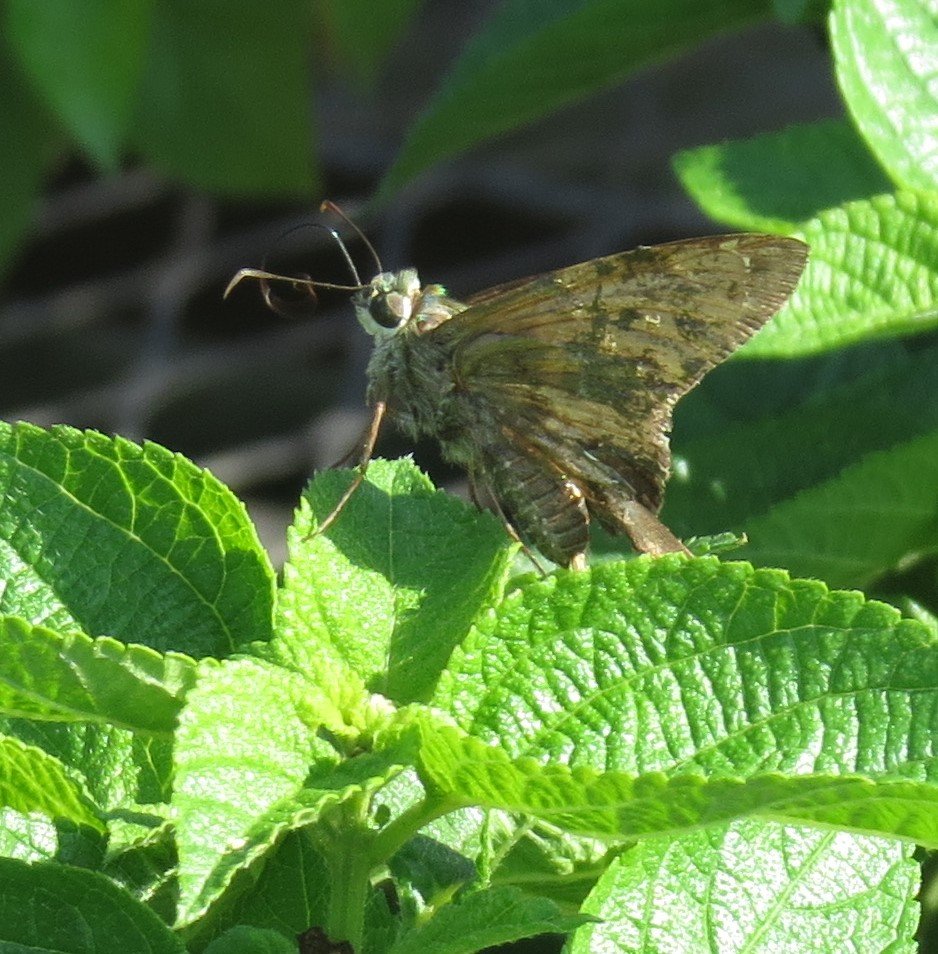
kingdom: Animalia
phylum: Arthropoda
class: Insecta
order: Lepidoptera
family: Hesperiidae
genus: Urbanus
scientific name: Urbanus proteus
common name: Long-tailed Skipper
